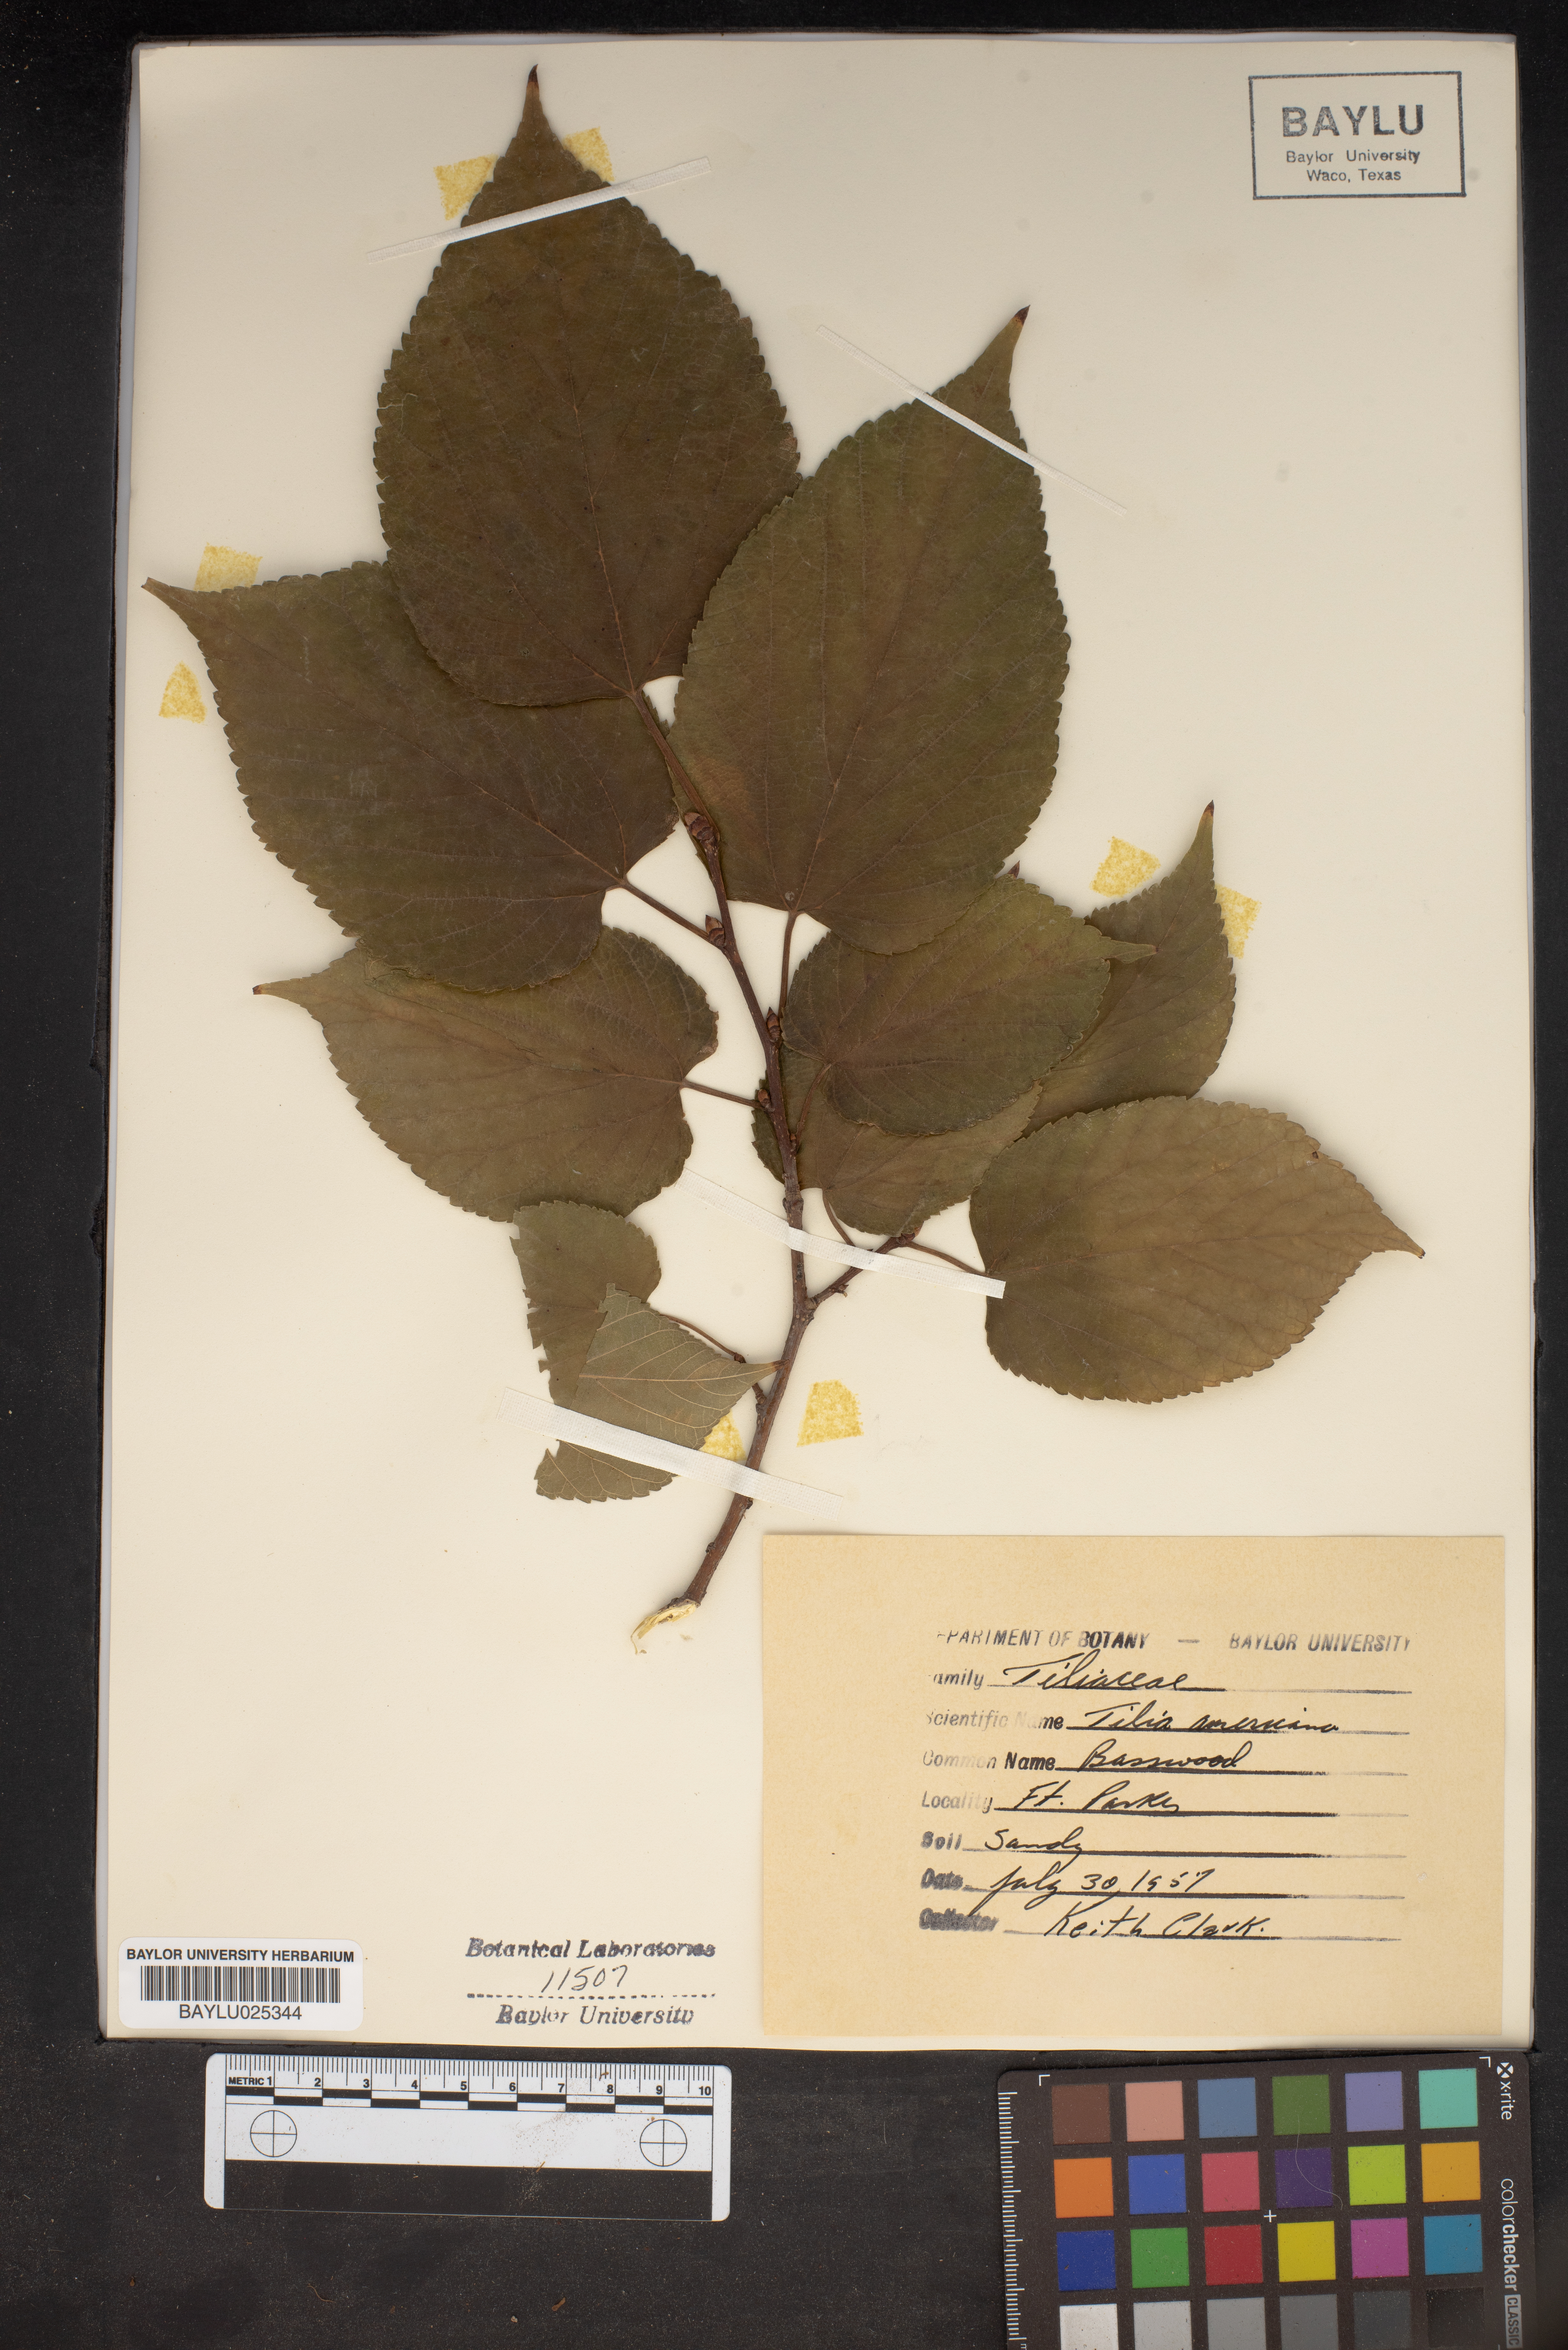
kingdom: Plantae
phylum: Tracheophyta
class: Magnoliopsida
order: Malvales
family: Malvaceae
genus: Tilia
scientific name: Tilia americana
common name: Basswood
